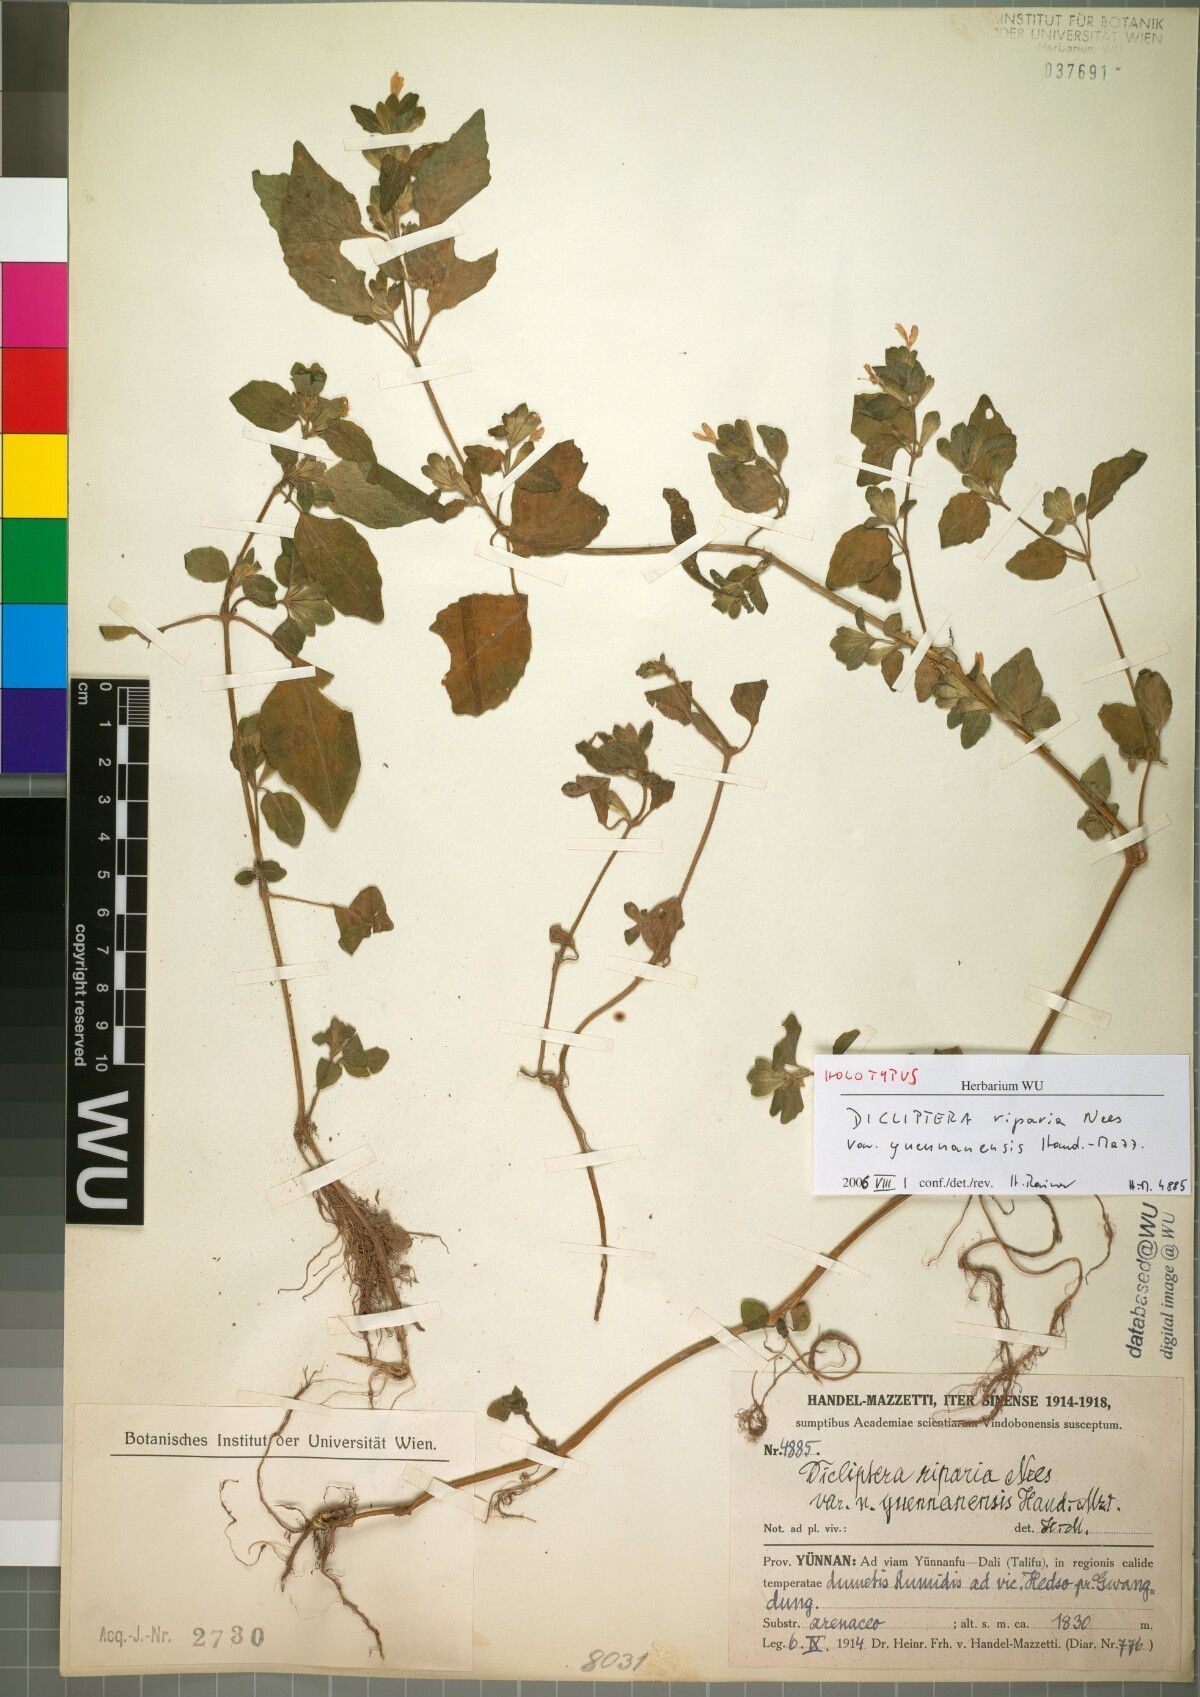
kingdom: Plantae
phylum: Tracheophyta
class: Magnoliopsida
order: Lamiales
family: Acanthaceae
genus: Hypoestes
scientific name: Hypoestes triflora
